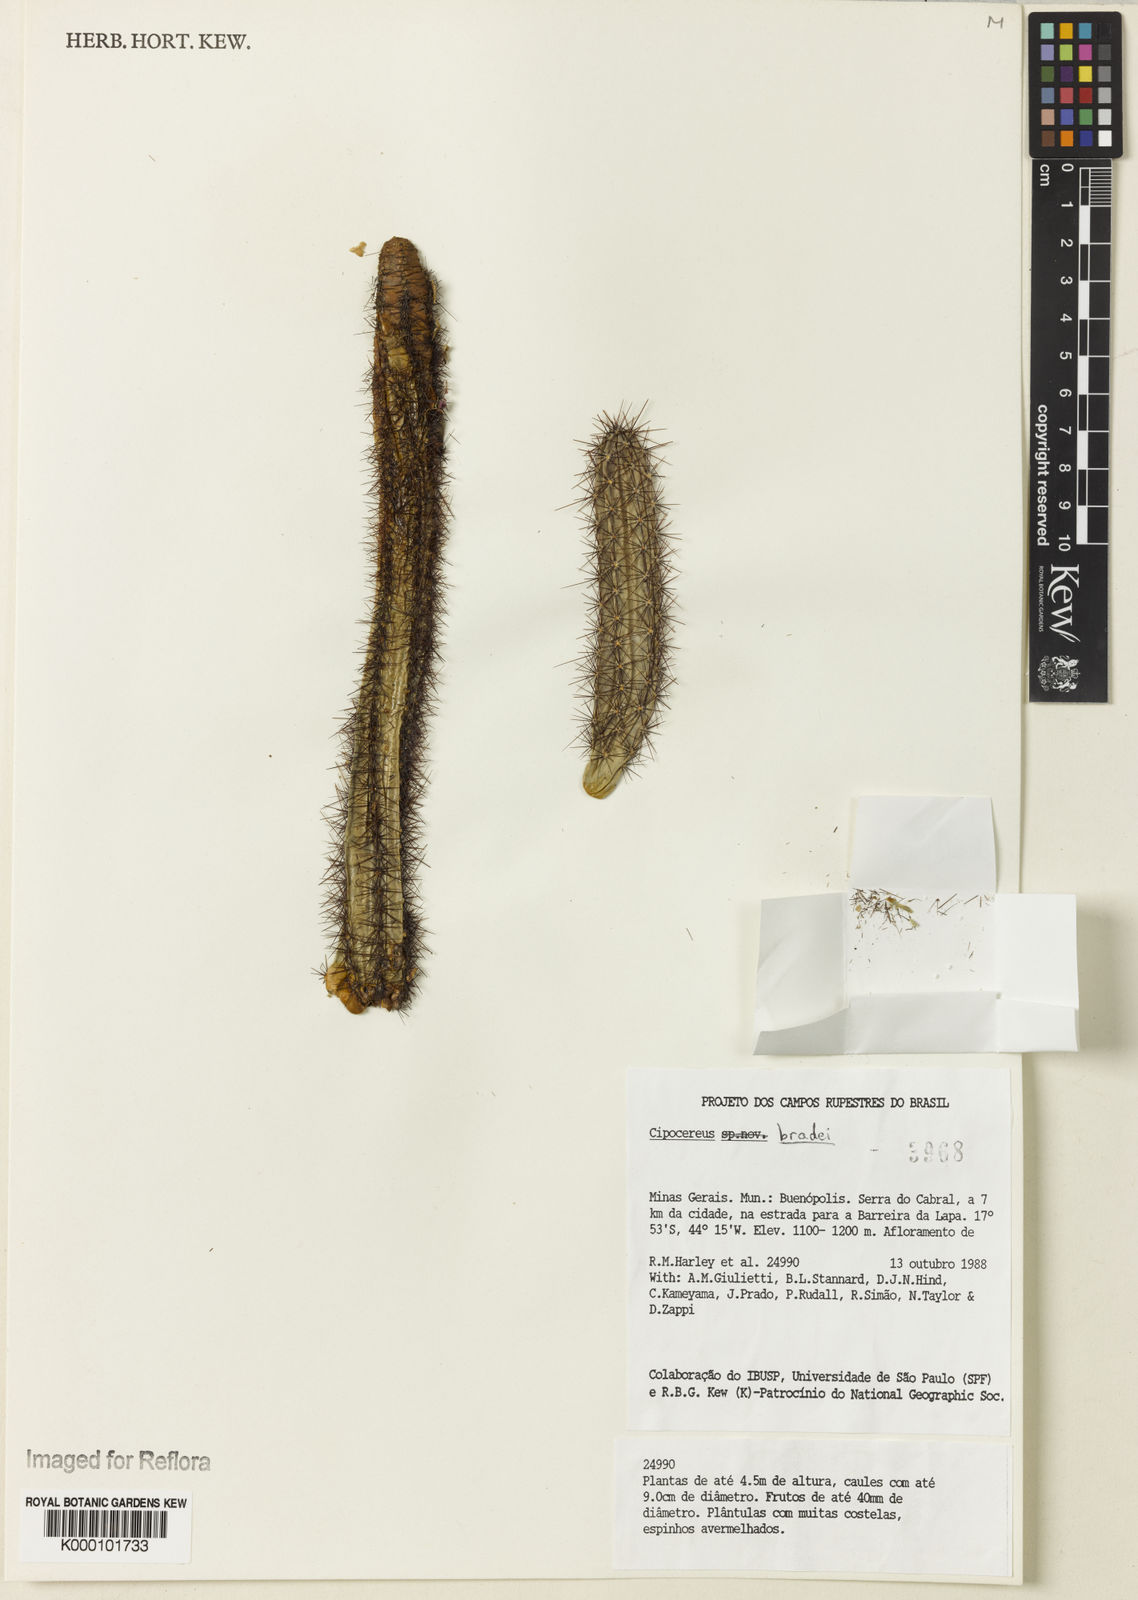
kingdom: Plantae
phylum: Tracheophyta
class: Magnoliopsida
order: Caryophyllales
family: Cactaceae
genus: Cipocereus
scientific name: Cipocereus bradei
